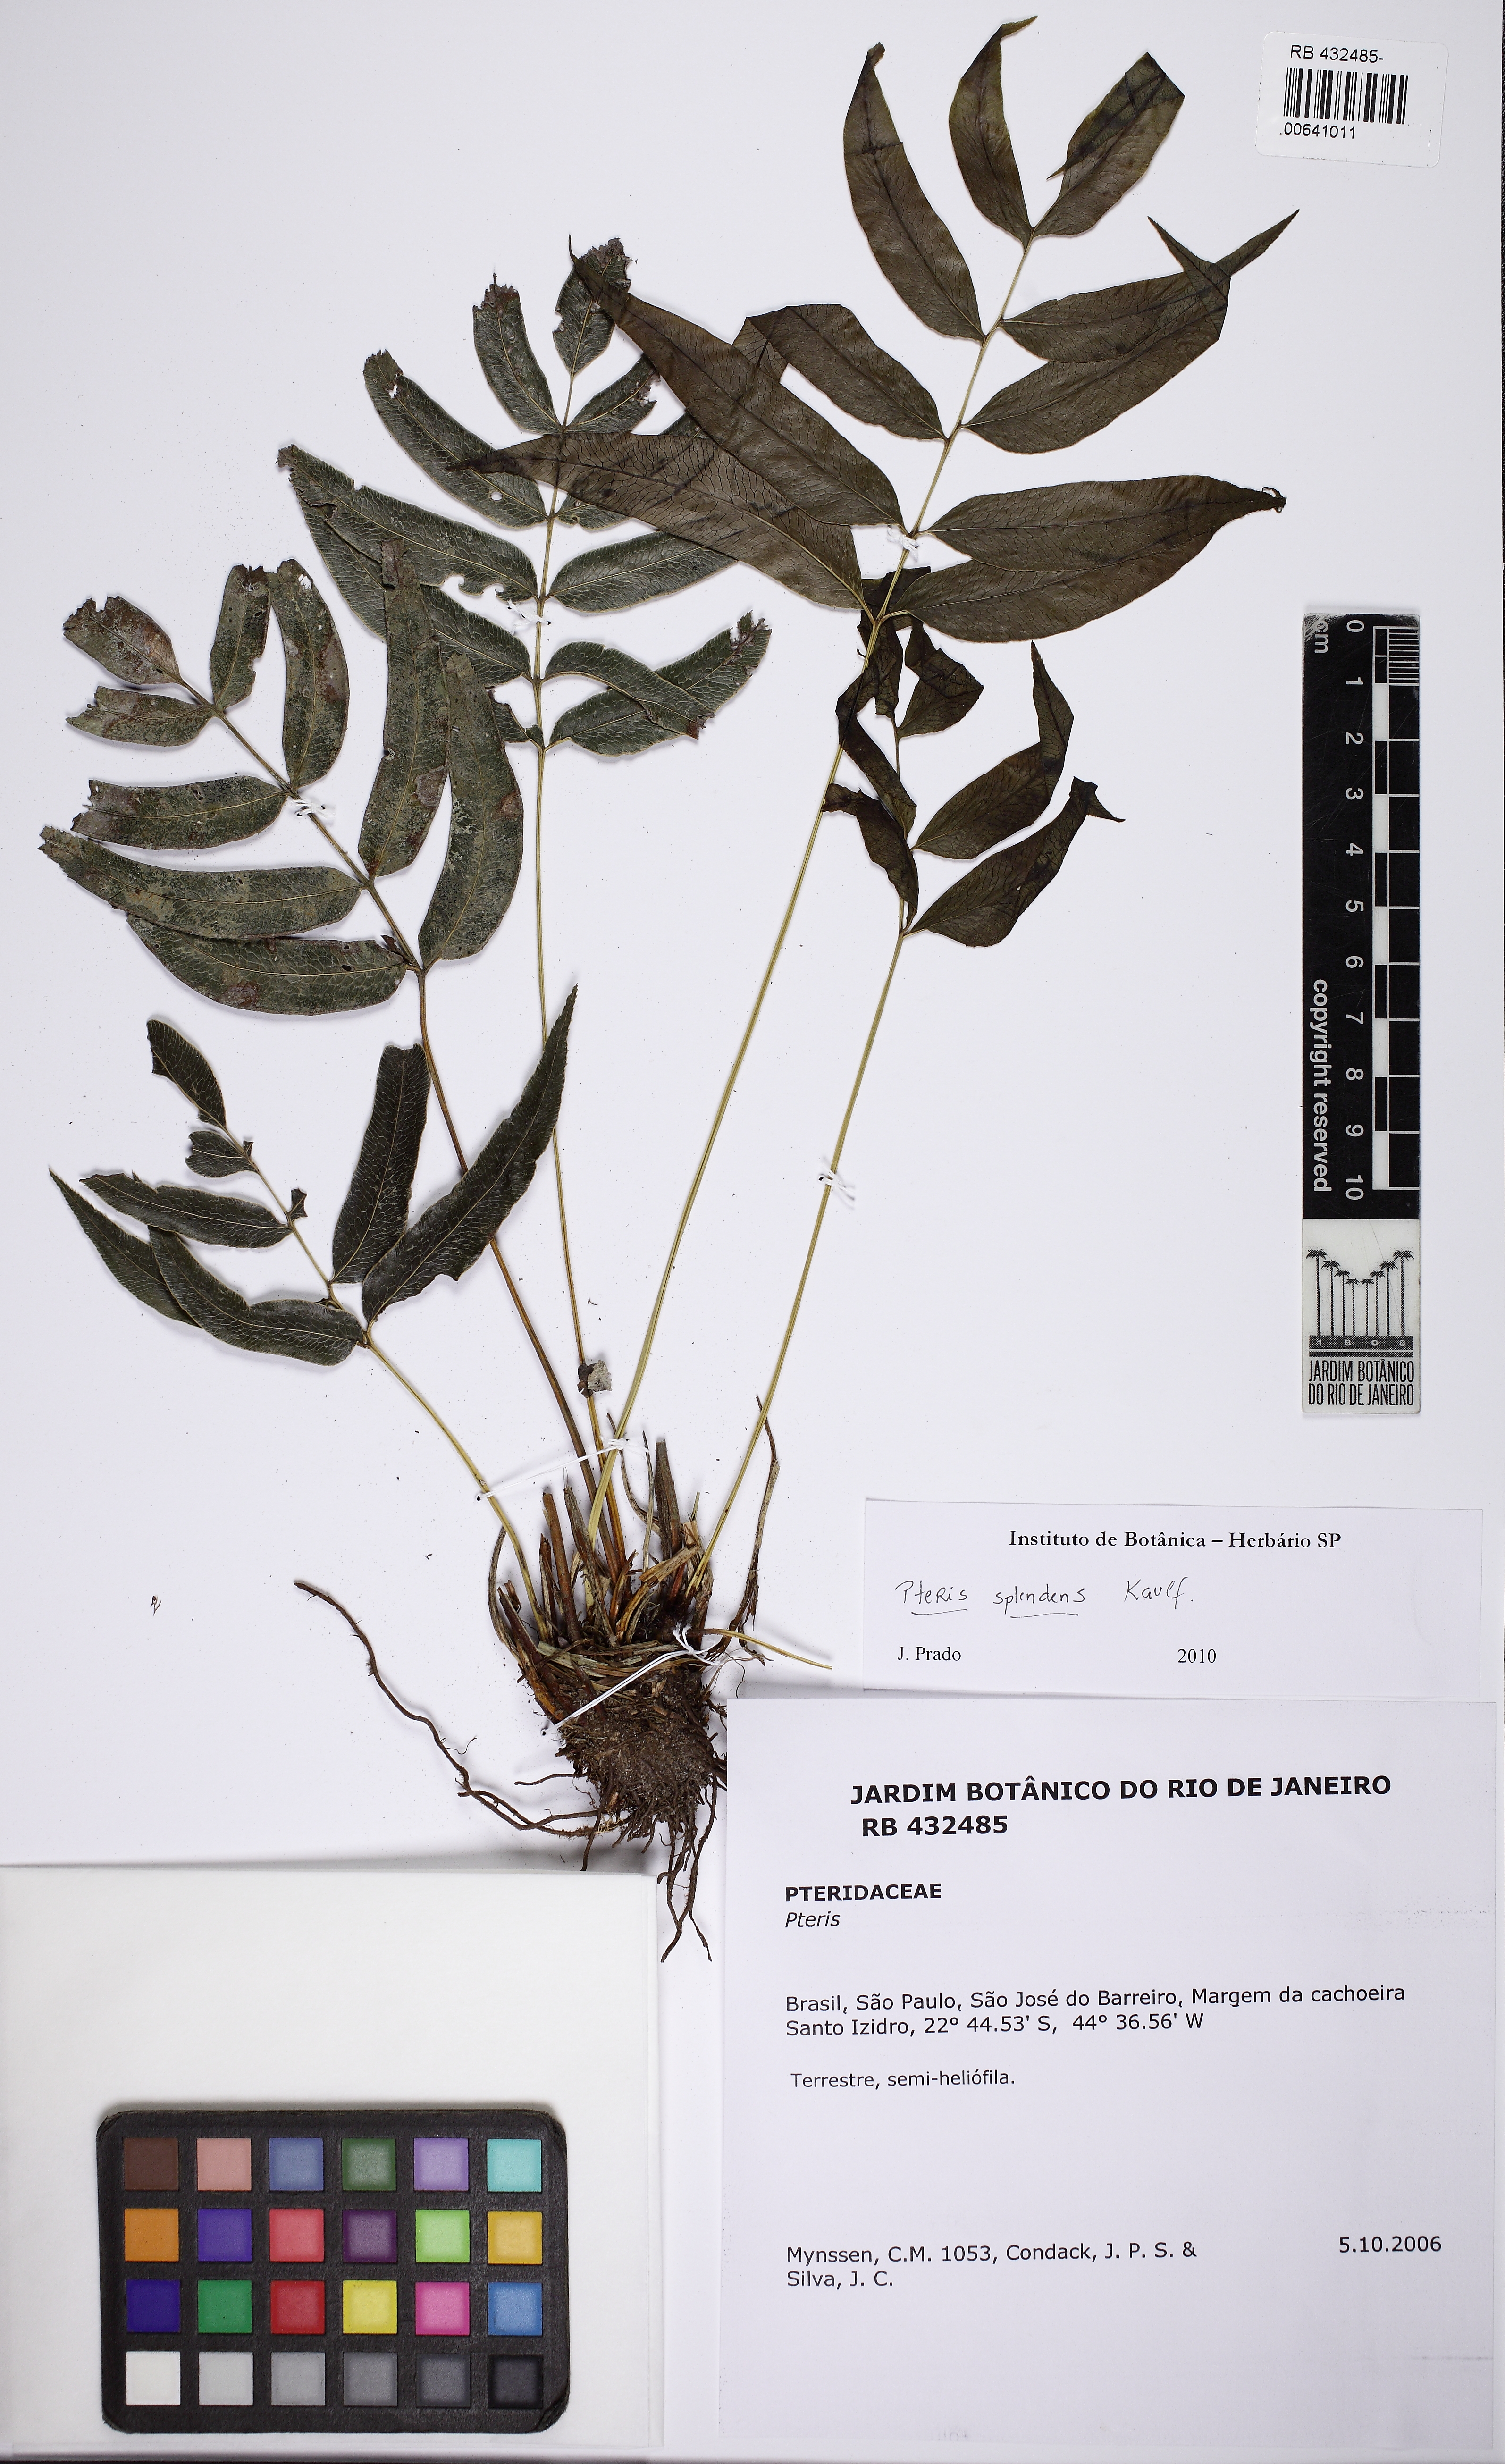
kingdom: Plantae
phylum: Tracheophyta
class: Polypodiopsida
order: Polypodiales
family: Pteridaceae
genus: Pteris
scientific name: Pteris splendens
